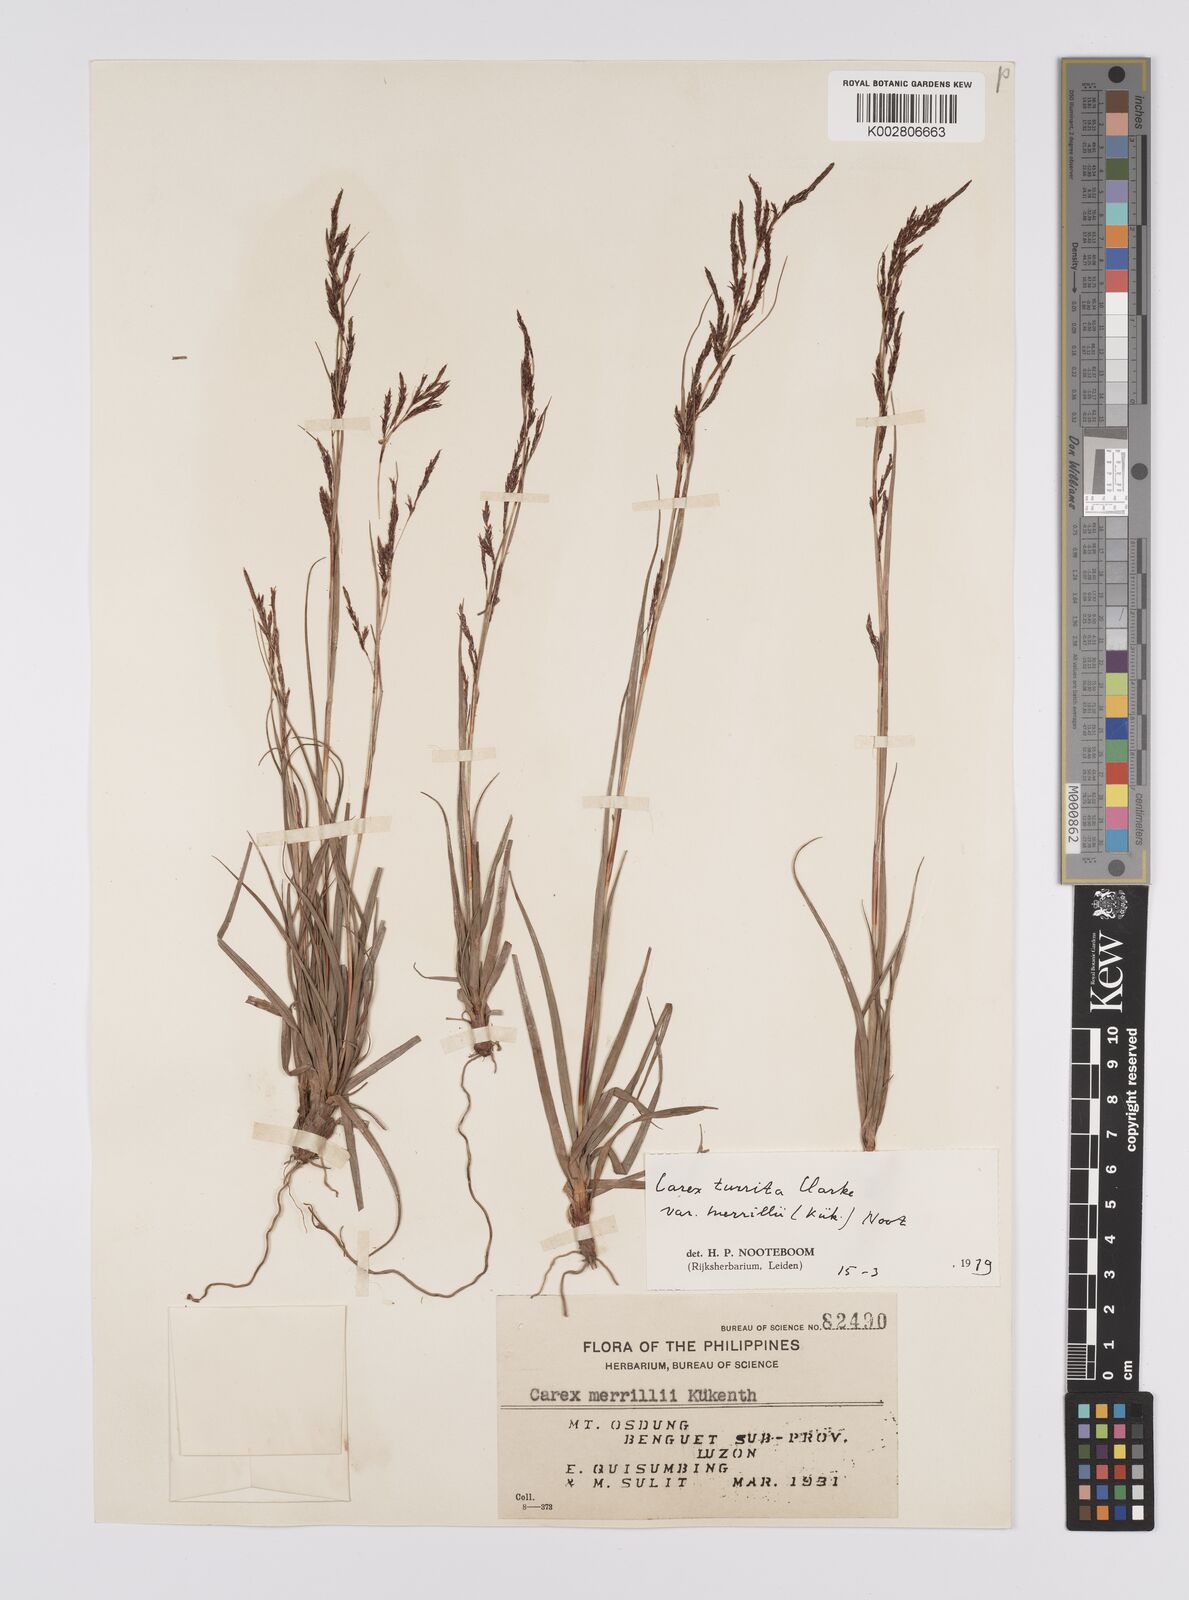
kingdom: Plantae
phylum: Tracheophyta
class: Liliopsida
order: Poales
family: Cyperaceae
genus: Carex
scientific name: Carex turrita
